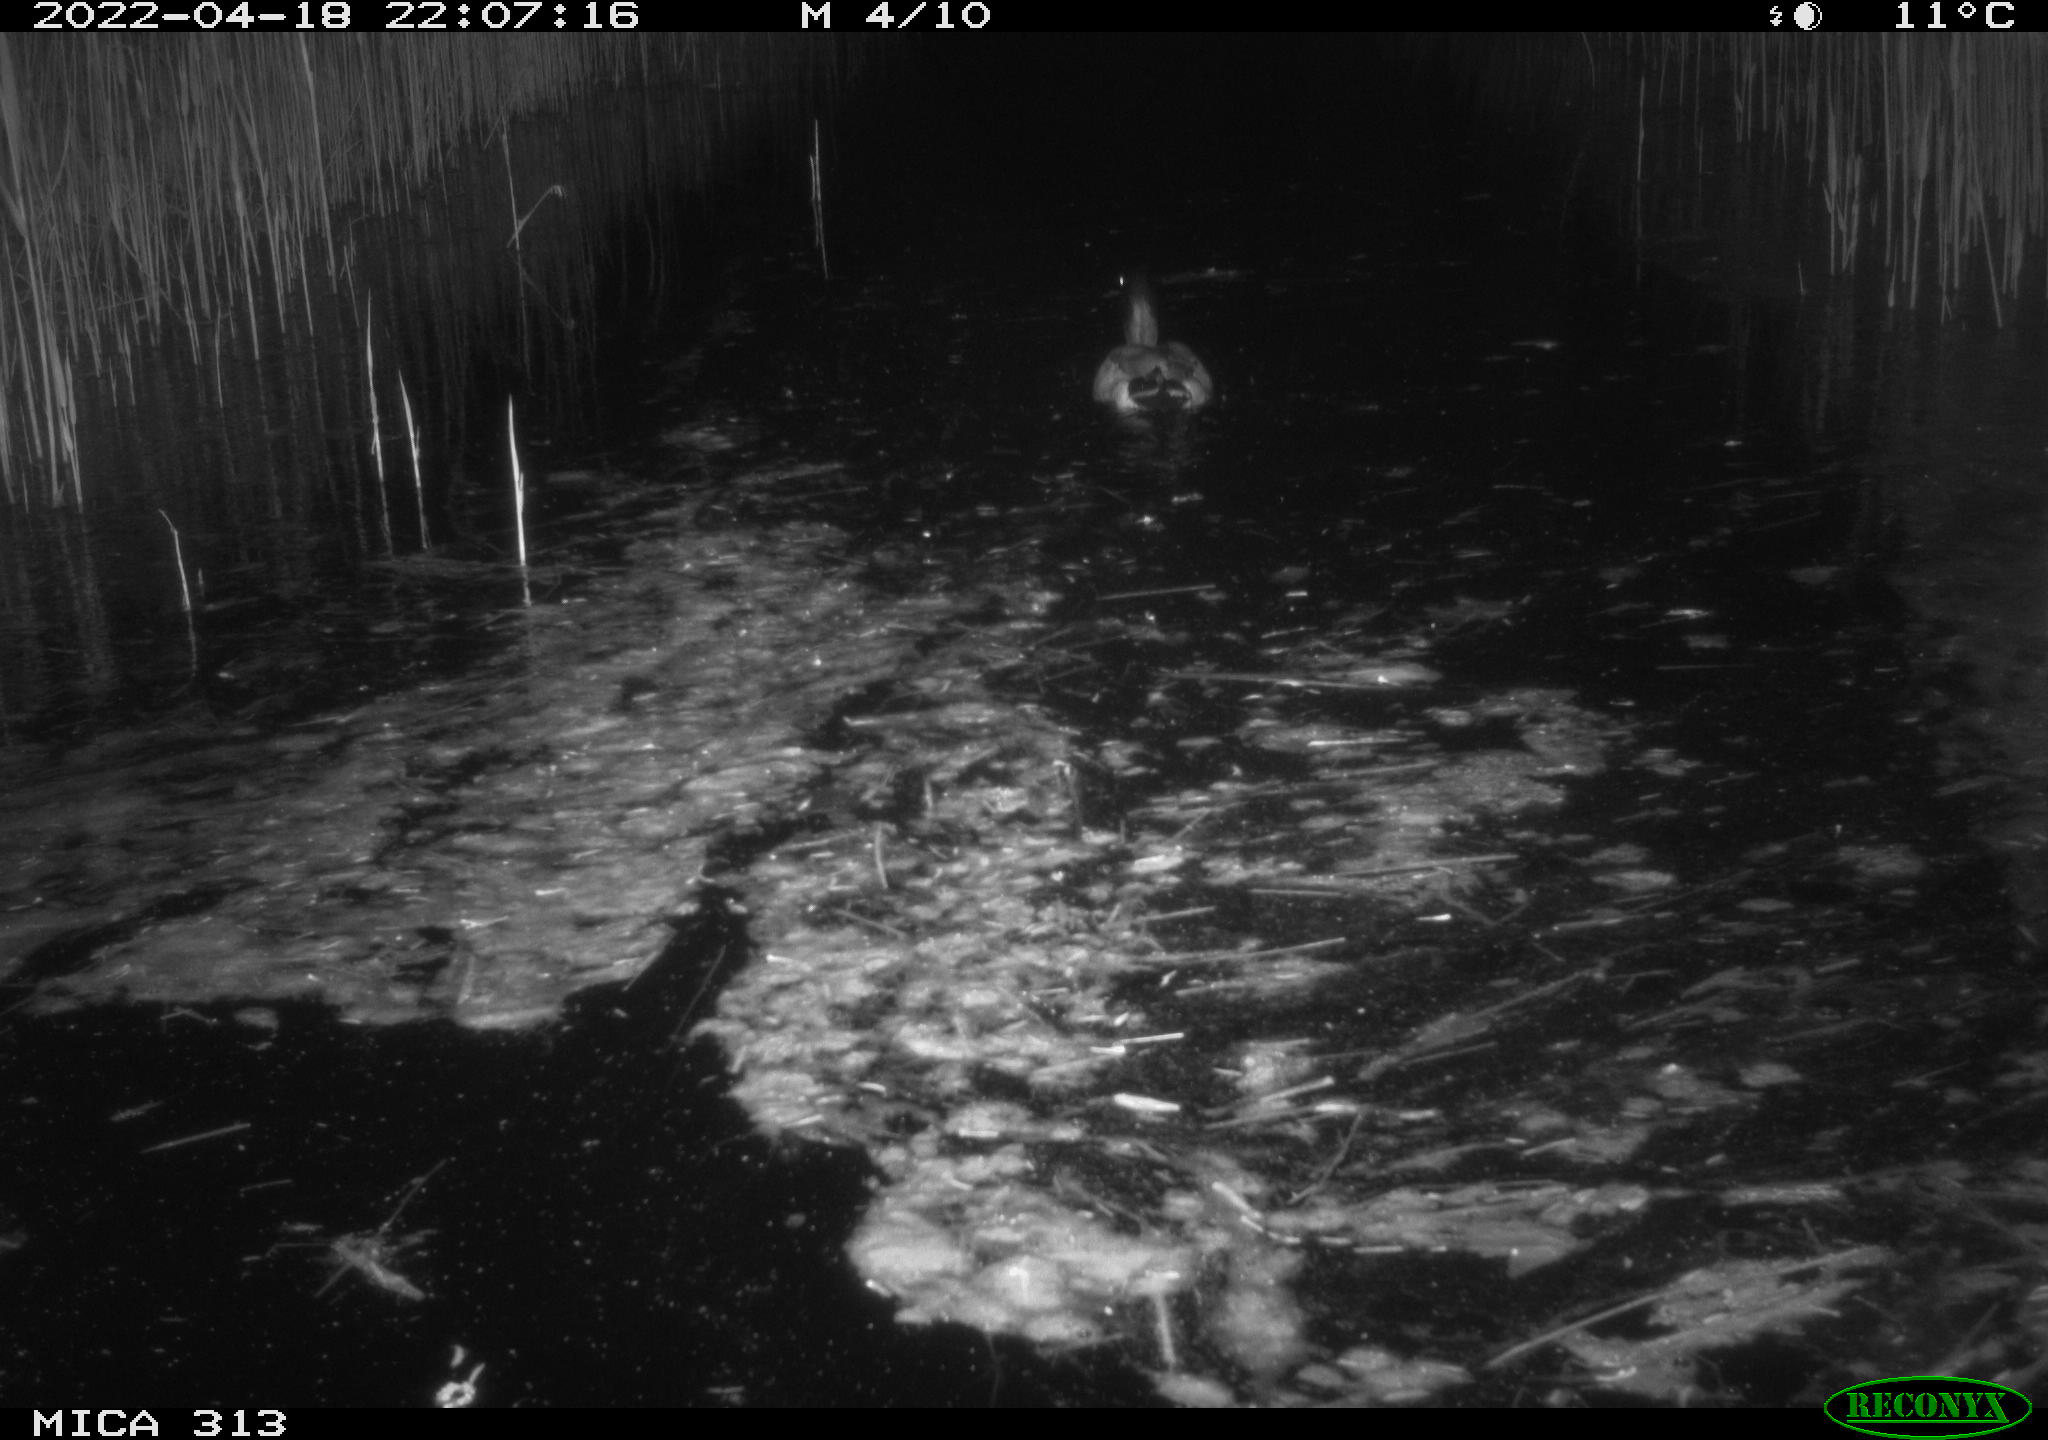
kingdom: Animalia
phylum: Chordata
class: Aves
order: Anseriformes
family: Anatidae
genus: Anas
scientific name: Anas platyrhynchos
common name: Mallard
